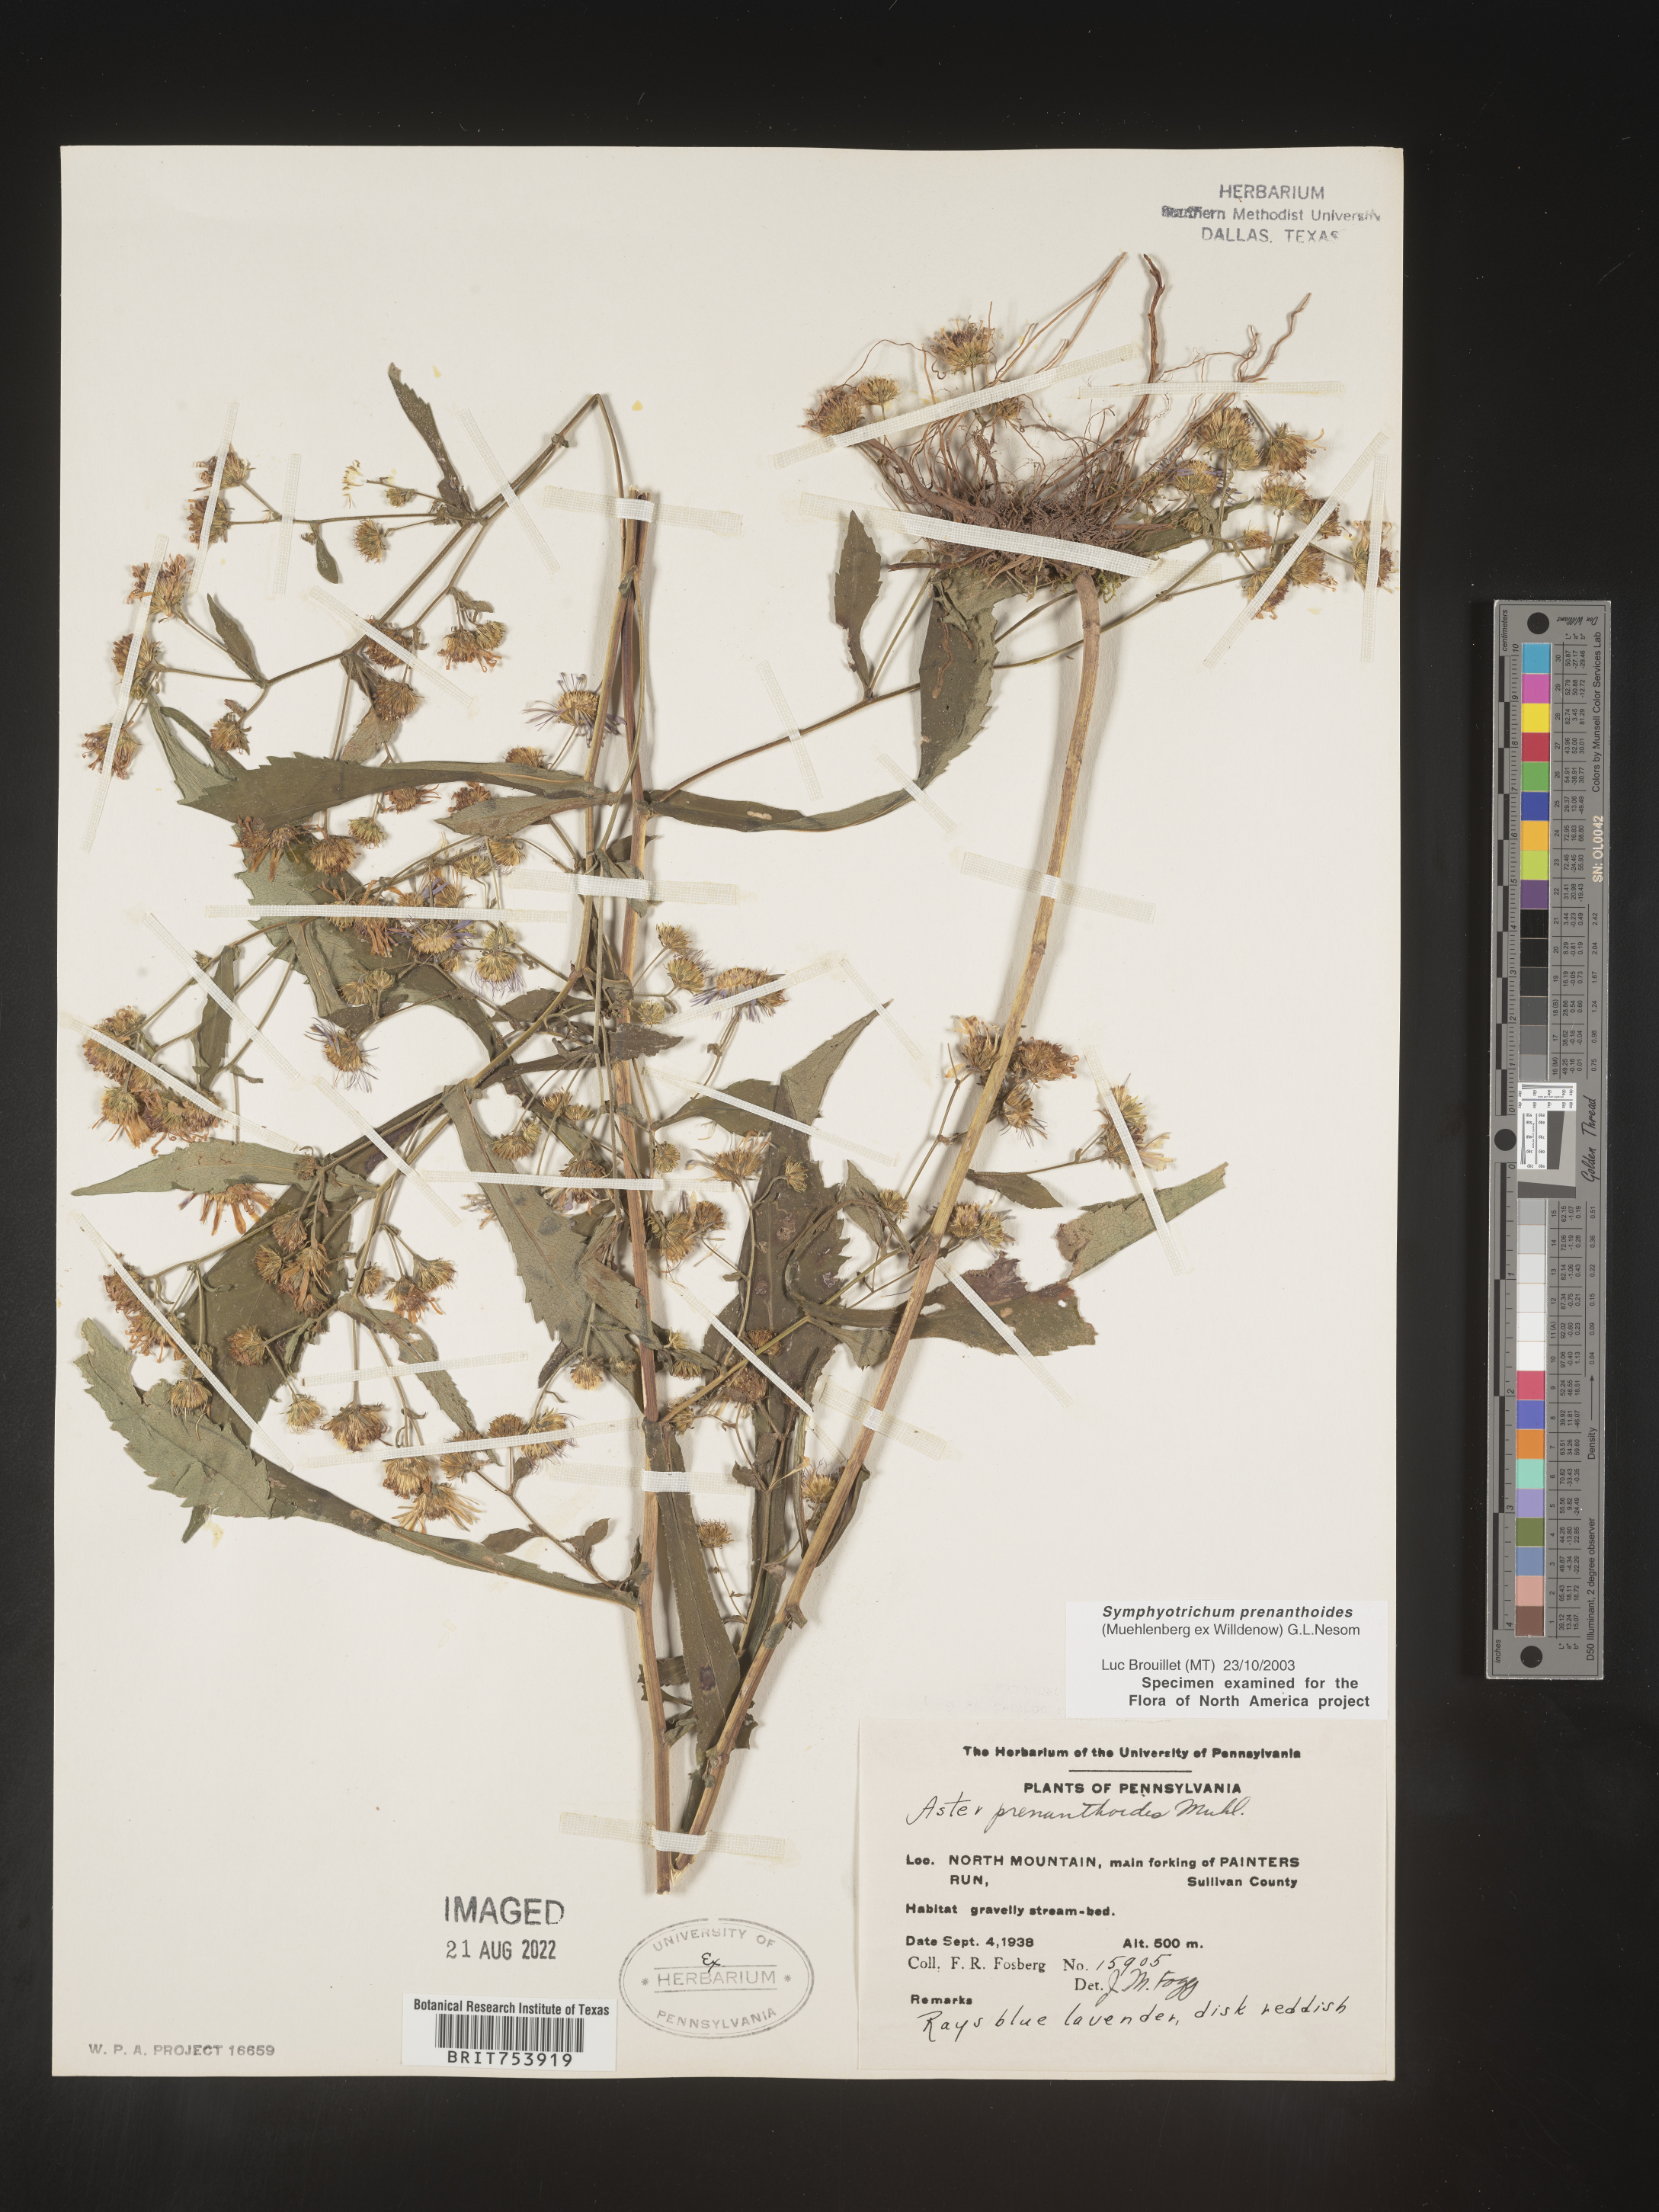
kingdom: Plantae
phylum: Tracheophyta
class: Magnoliopsida
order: Asterales
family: Asteraceae
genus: Symphyotrichum
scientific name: Symphyotrichum prenanthoides
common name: Crooked-stem aster
